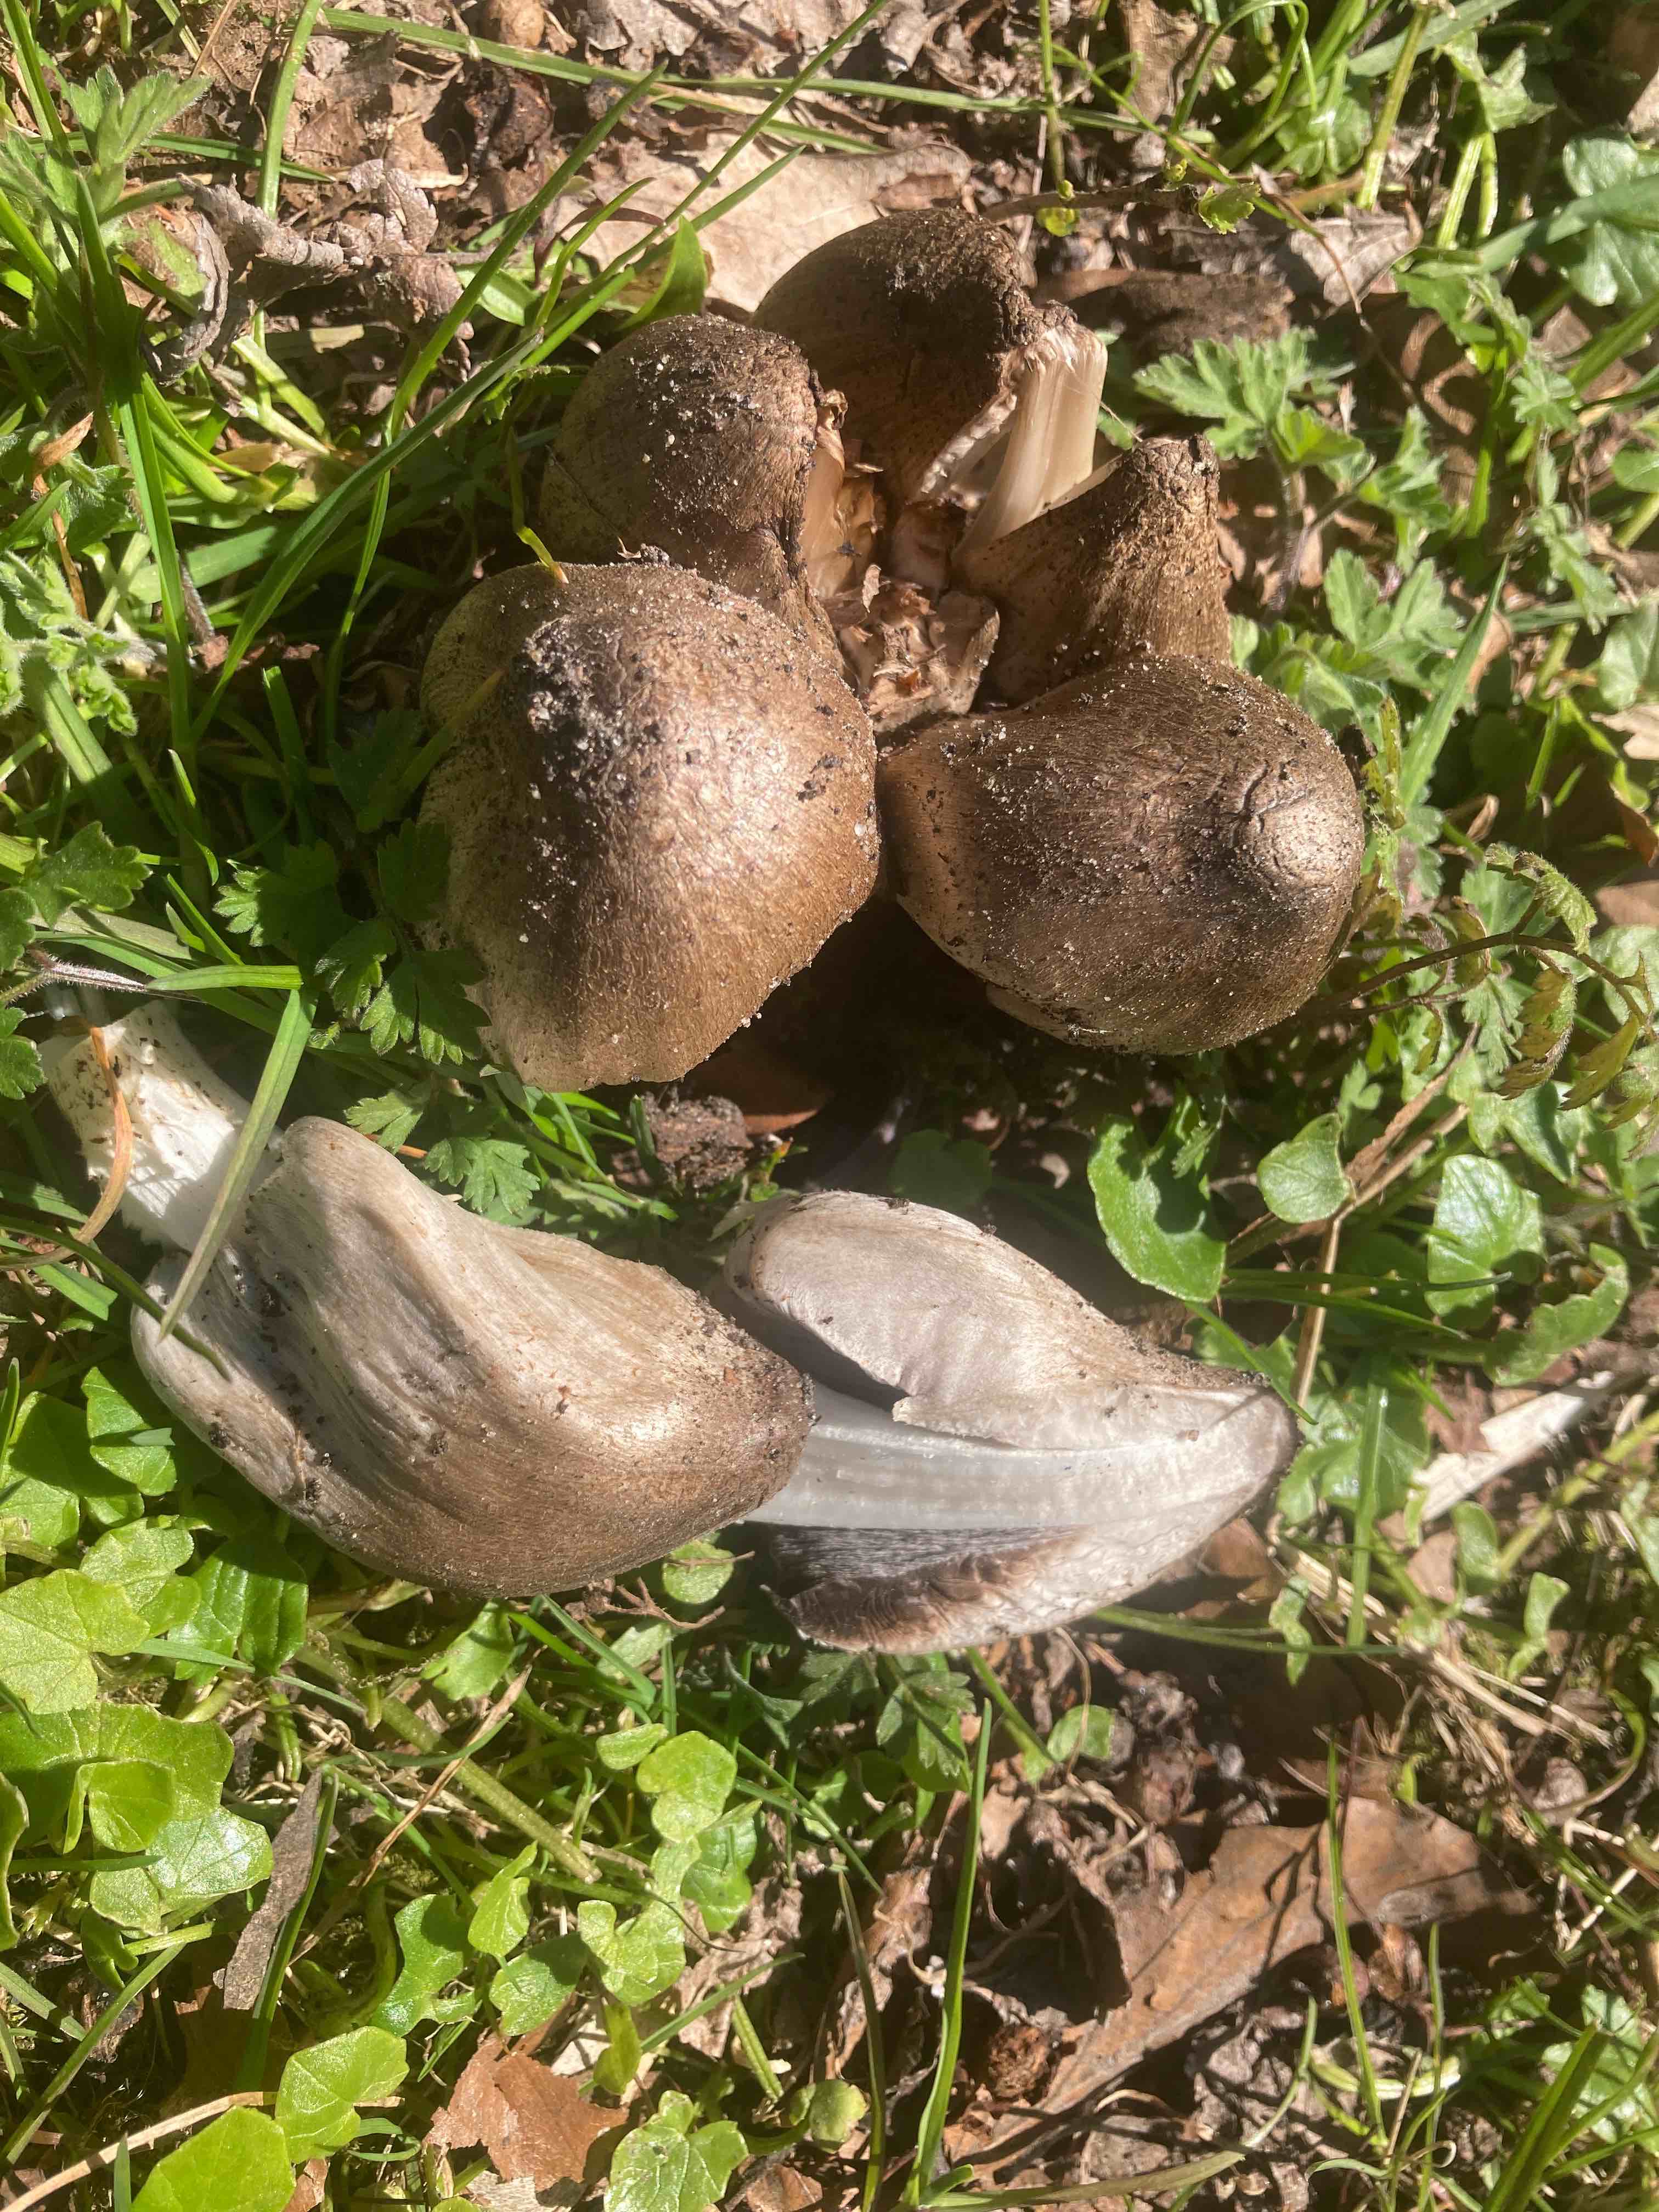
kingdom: Fungi
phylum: Basidiomycota
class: Agaricomycetes
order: Agaricales
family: Psathyrellaceae
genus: Coprinopsis
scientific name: Coprinopsis atramentaria
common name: almindelig blækhat
